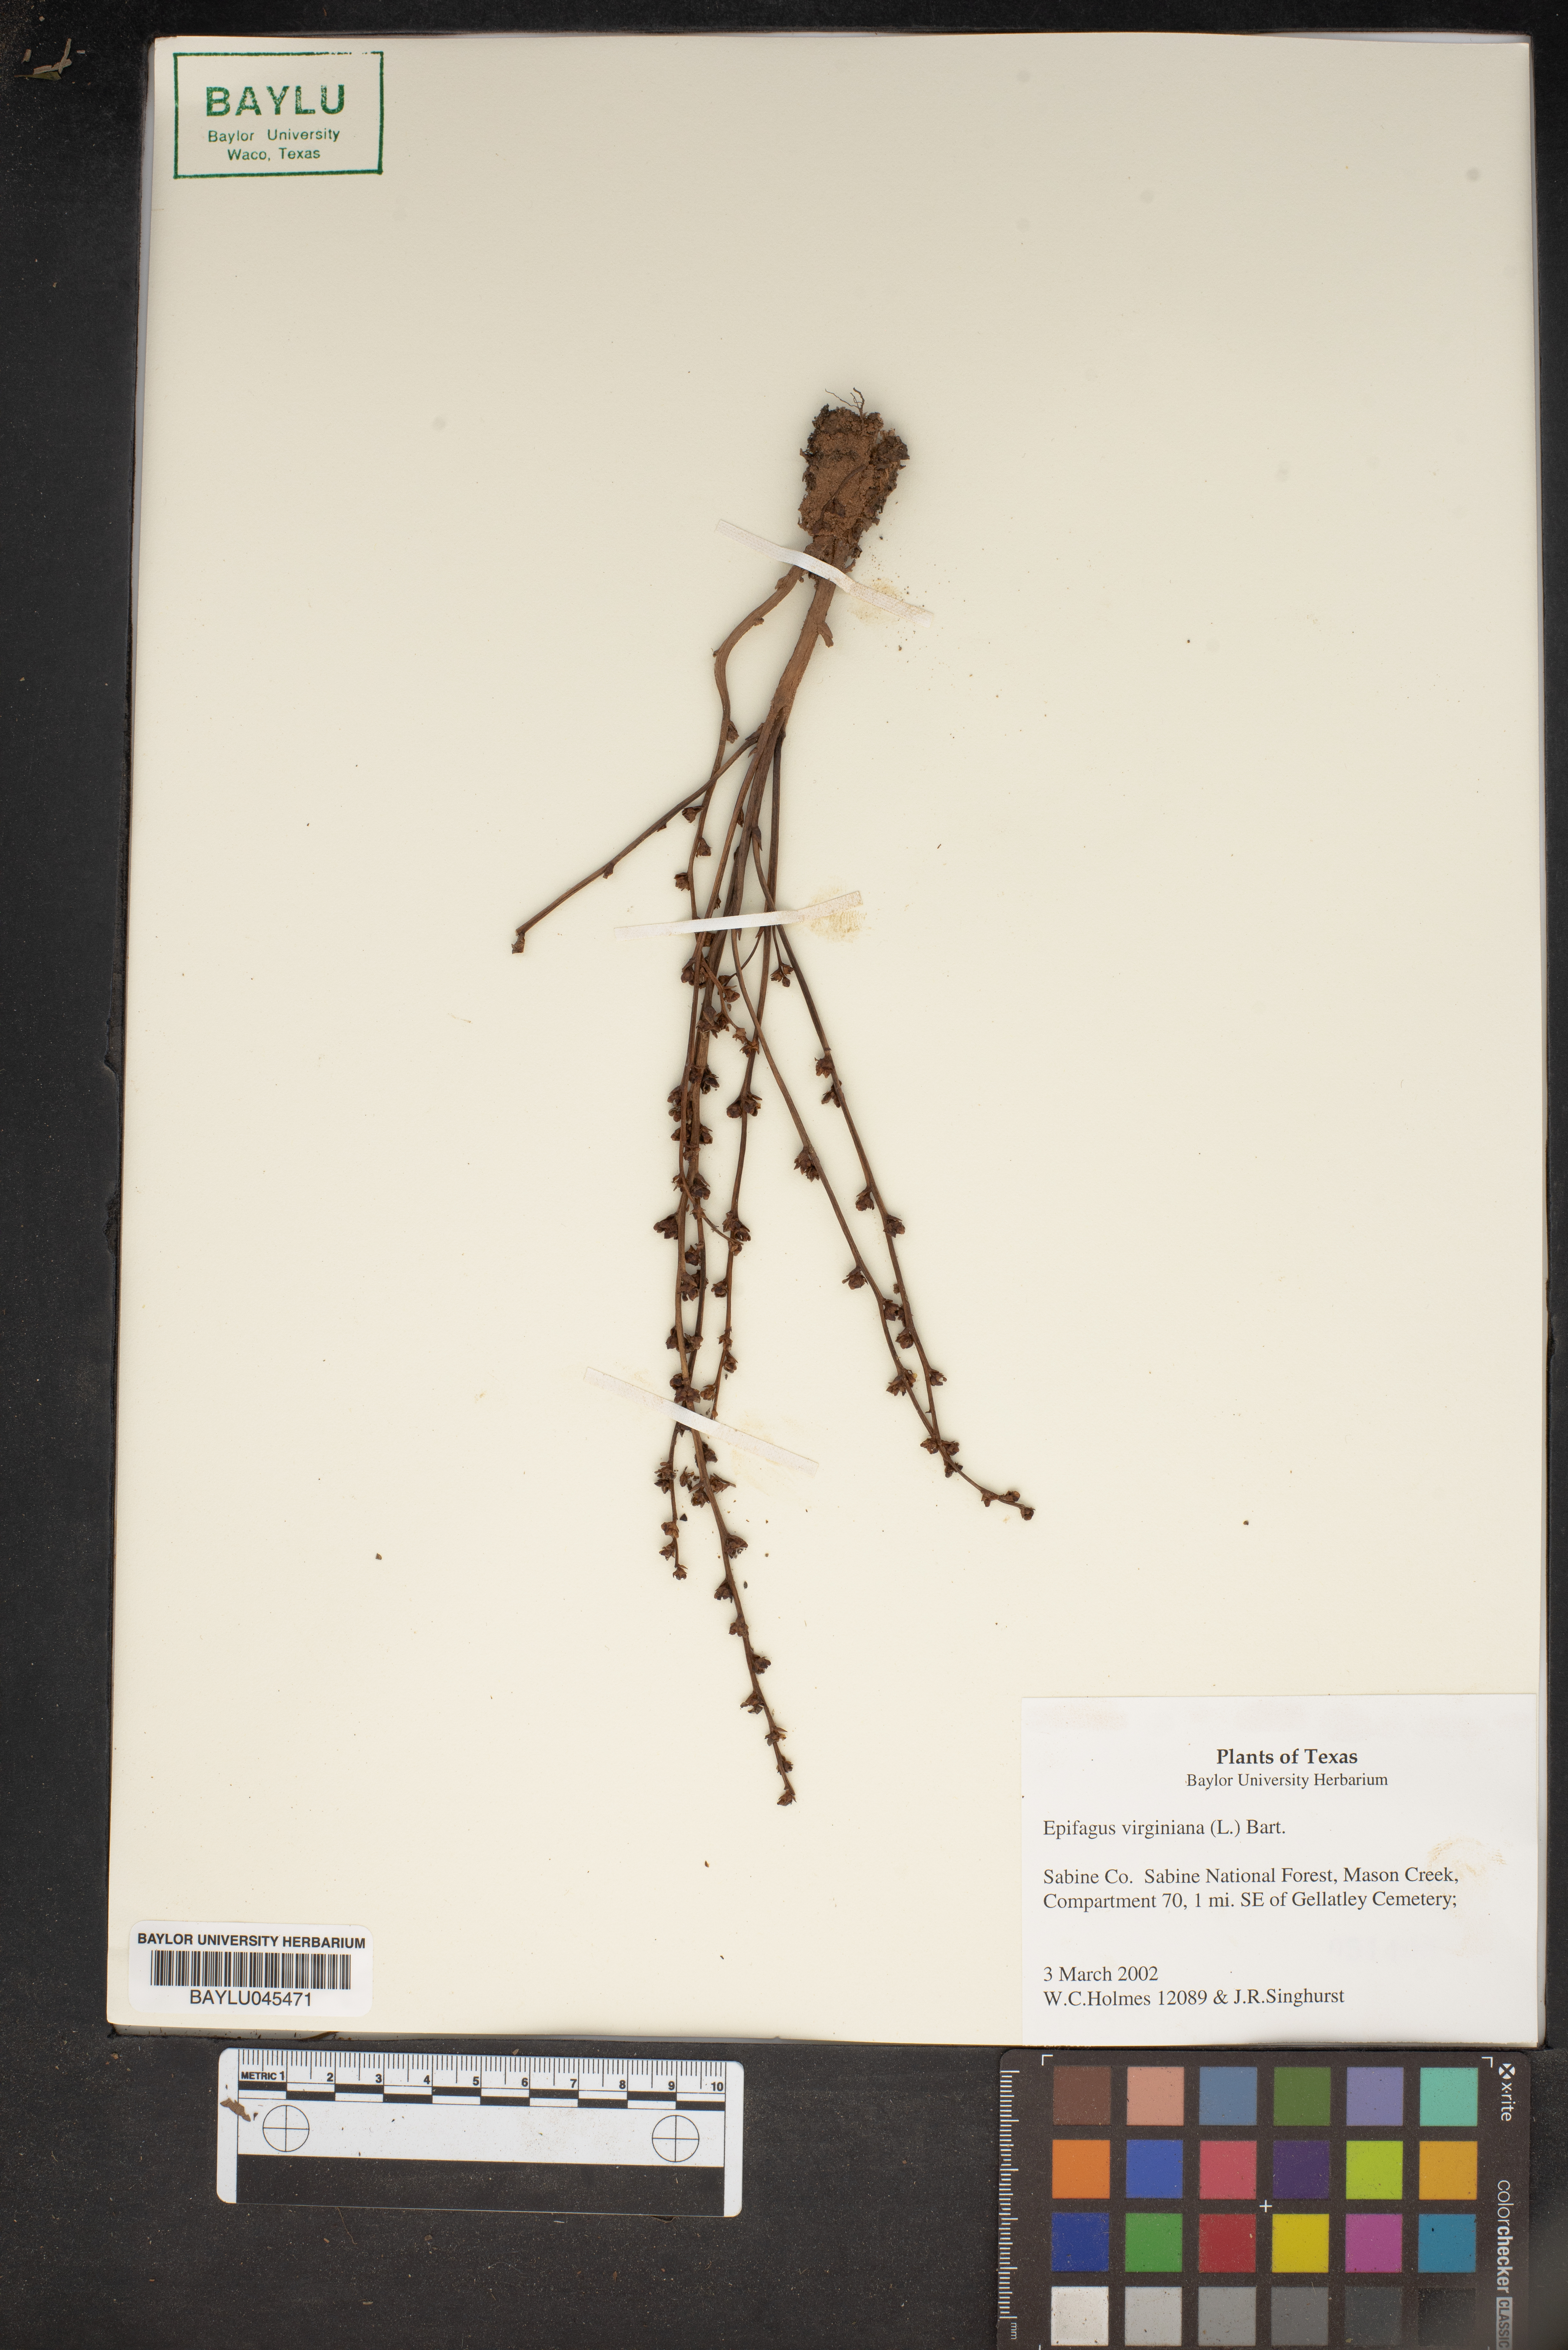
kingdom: Plantae
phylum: Tracheophyta
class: Magnoliopsida
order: Lamiales
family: Orobanchaceae
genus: Epifagus
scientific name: Epifagus virginiana
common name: Beechdrops
